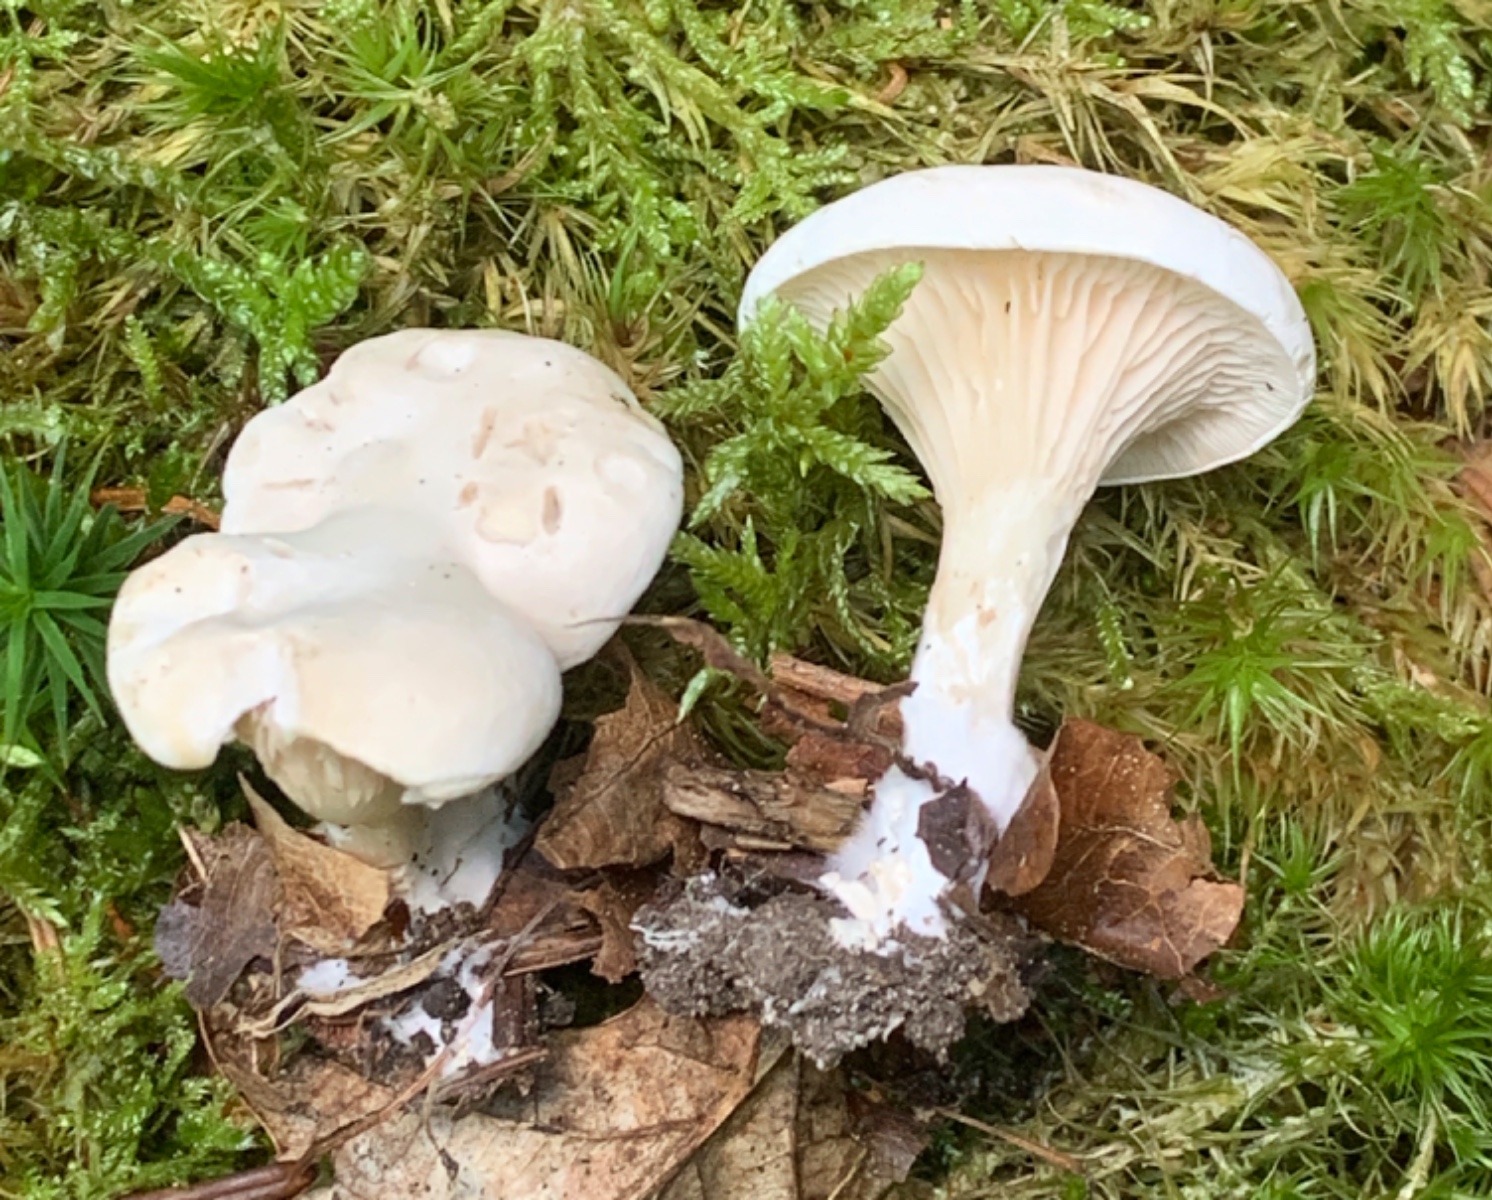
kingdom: Fungi
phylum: Basidiomycota
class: Agaricomycetes
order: Agaricales
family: Entolomataceae
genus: Clitopilus
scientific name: Clitopilus prunulus
